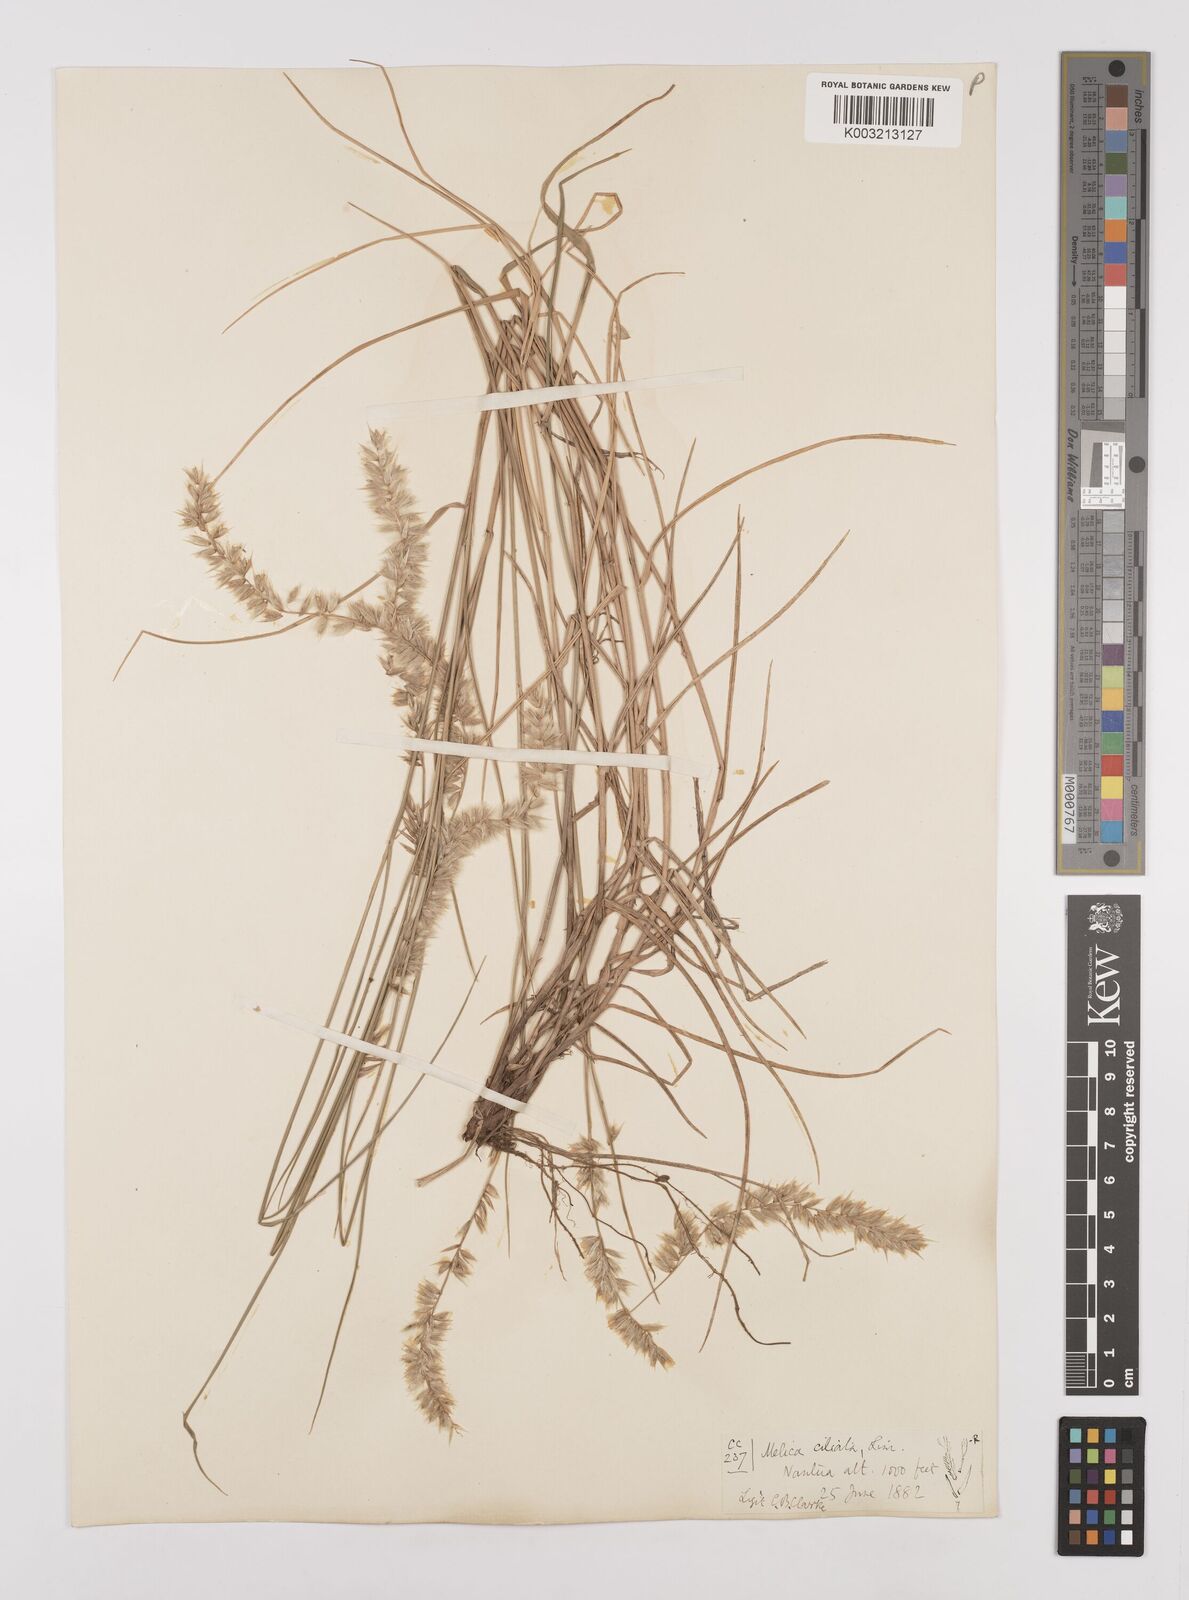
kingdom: Plantae
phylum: Tracheophyta
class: Liliopsida
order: Poales
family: Poaceae
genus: Melica
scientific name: Melica ciliata
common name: Hairy melicgrass
